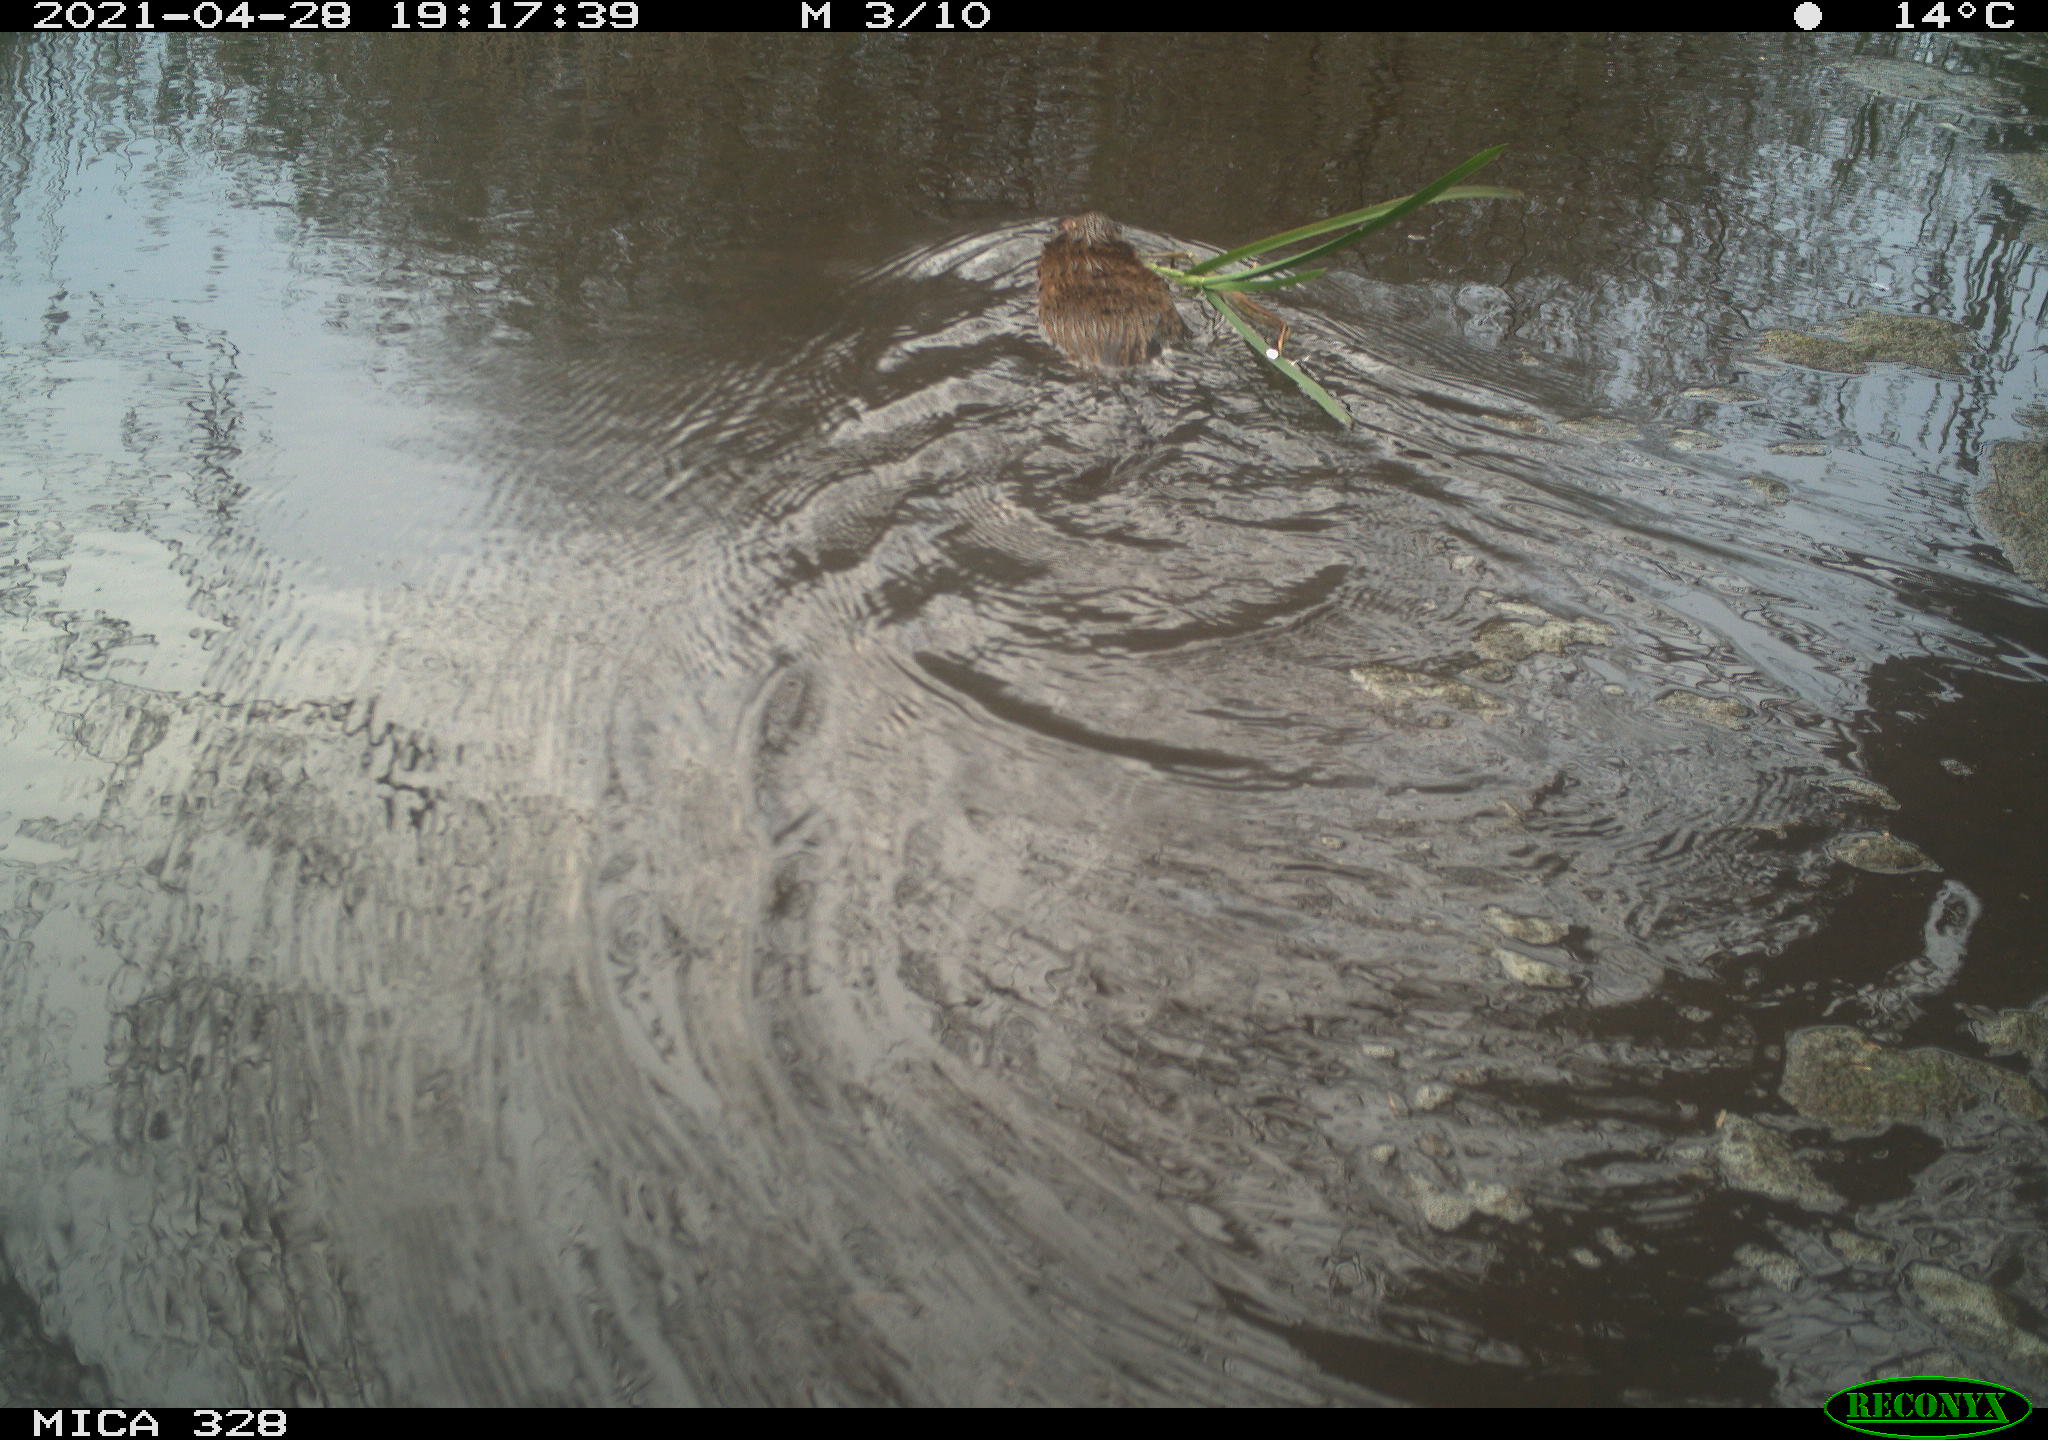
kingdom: Animalia
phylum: Chordata
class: Mammalia
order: Rodentia
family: Cricetidae
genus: Ondatra
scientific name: Ondatra zibethicus
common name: Muskrat
